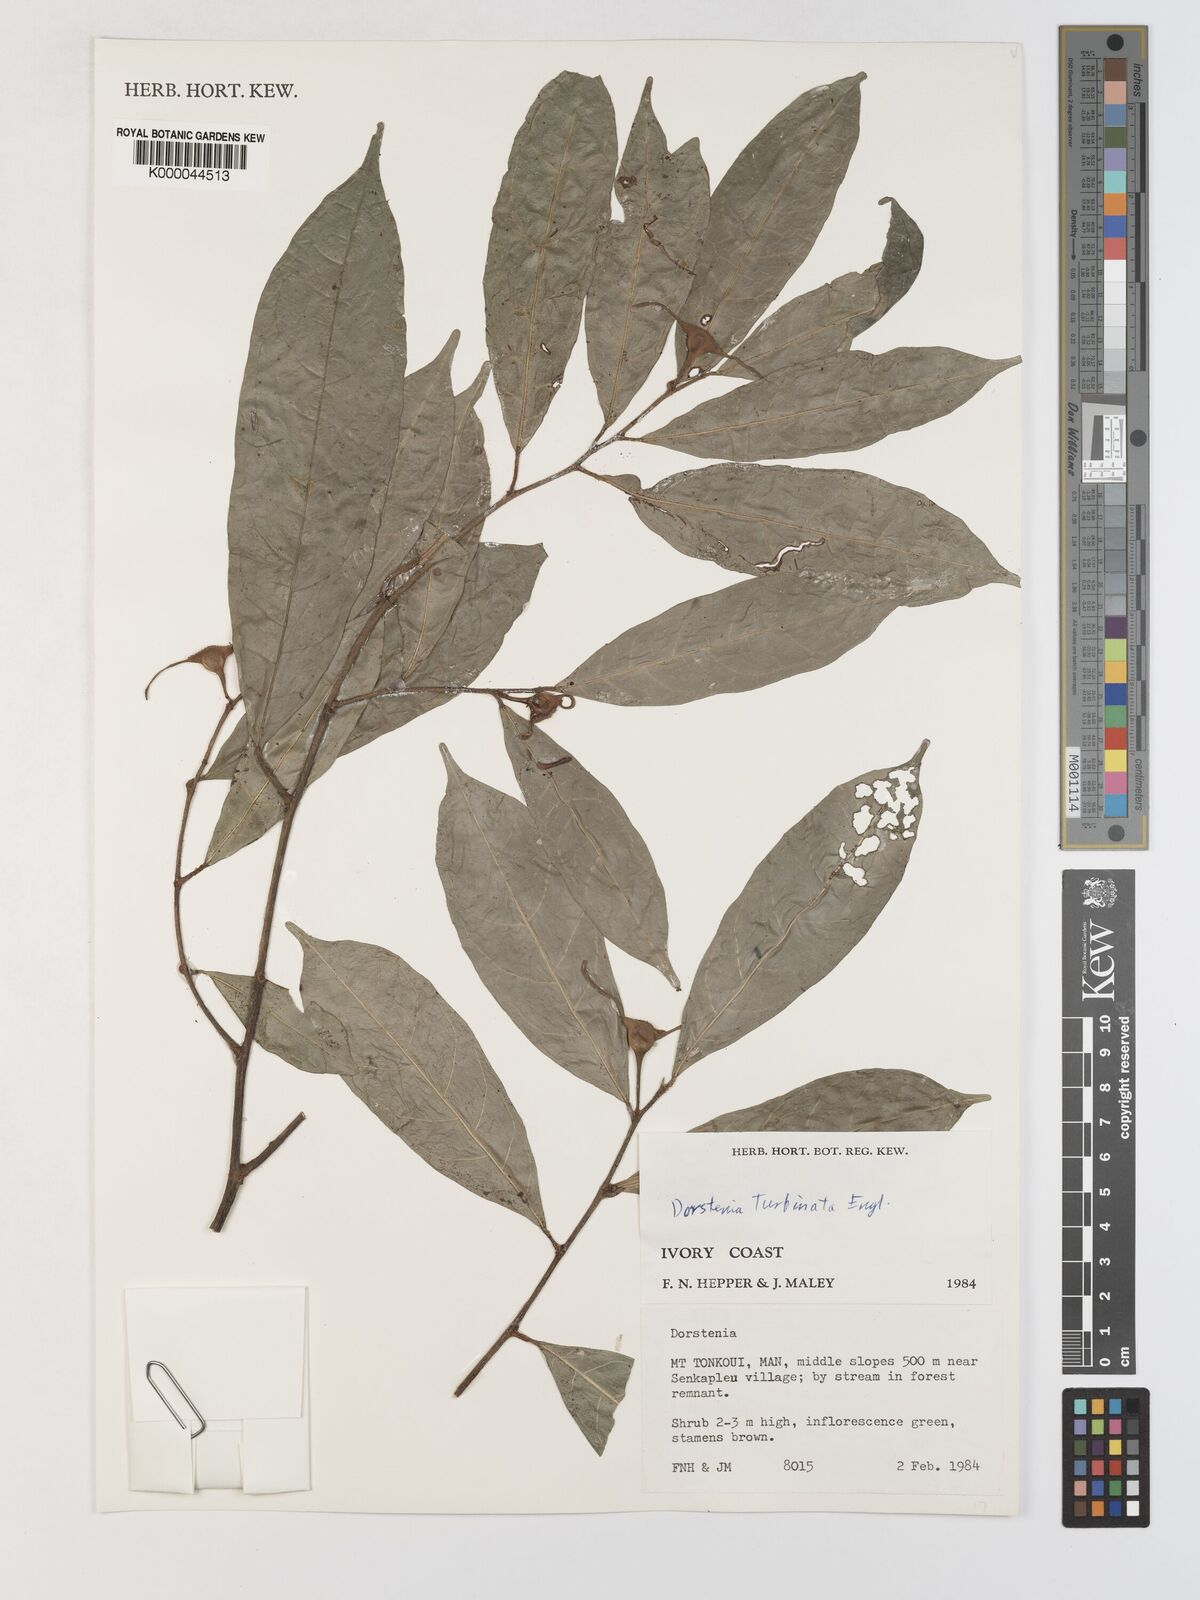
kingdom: Plantae
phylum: Tracheophyta
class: Magnoliopsida
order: Rosales
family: Moraceae
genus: Hijmania
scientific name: Hijmania turbinata
